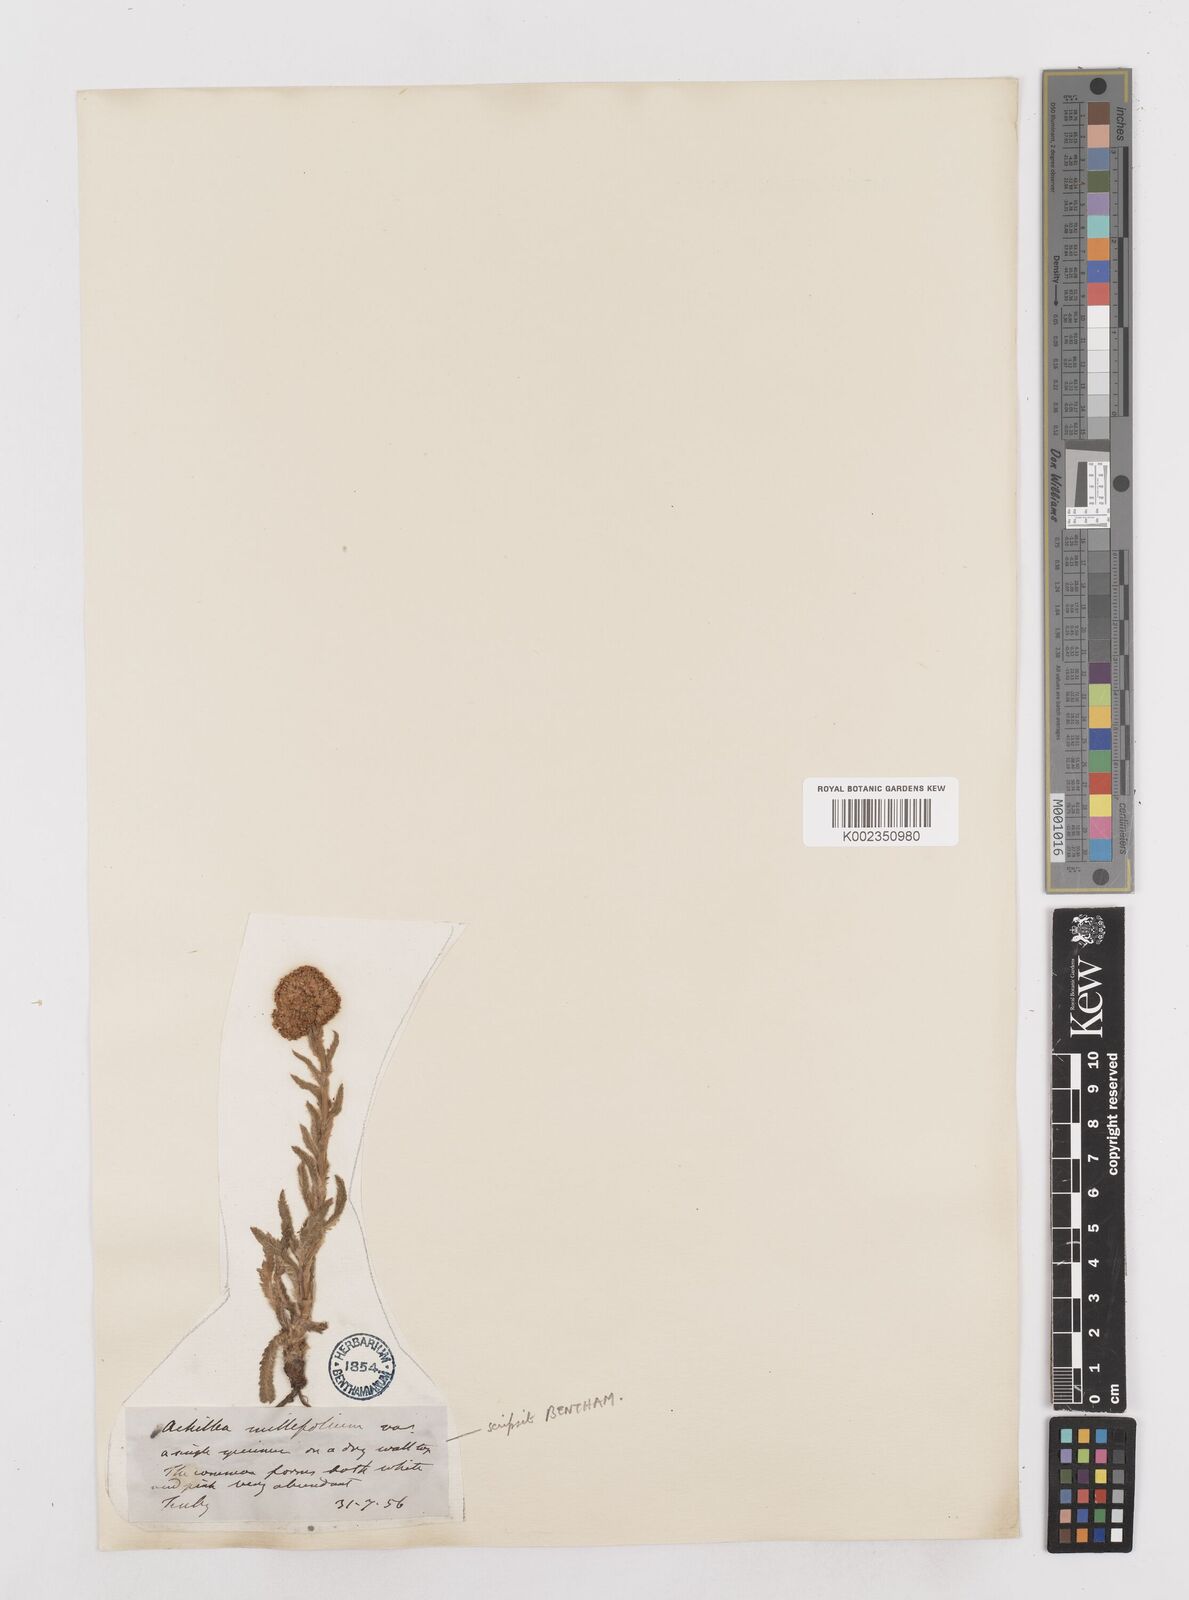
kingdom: Plantae
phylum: Tracheophyta
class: Magnoliopsida
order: Asterales
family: Asteraceae
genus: Achillea
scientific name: Achillea millefolium
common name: Yarrow
